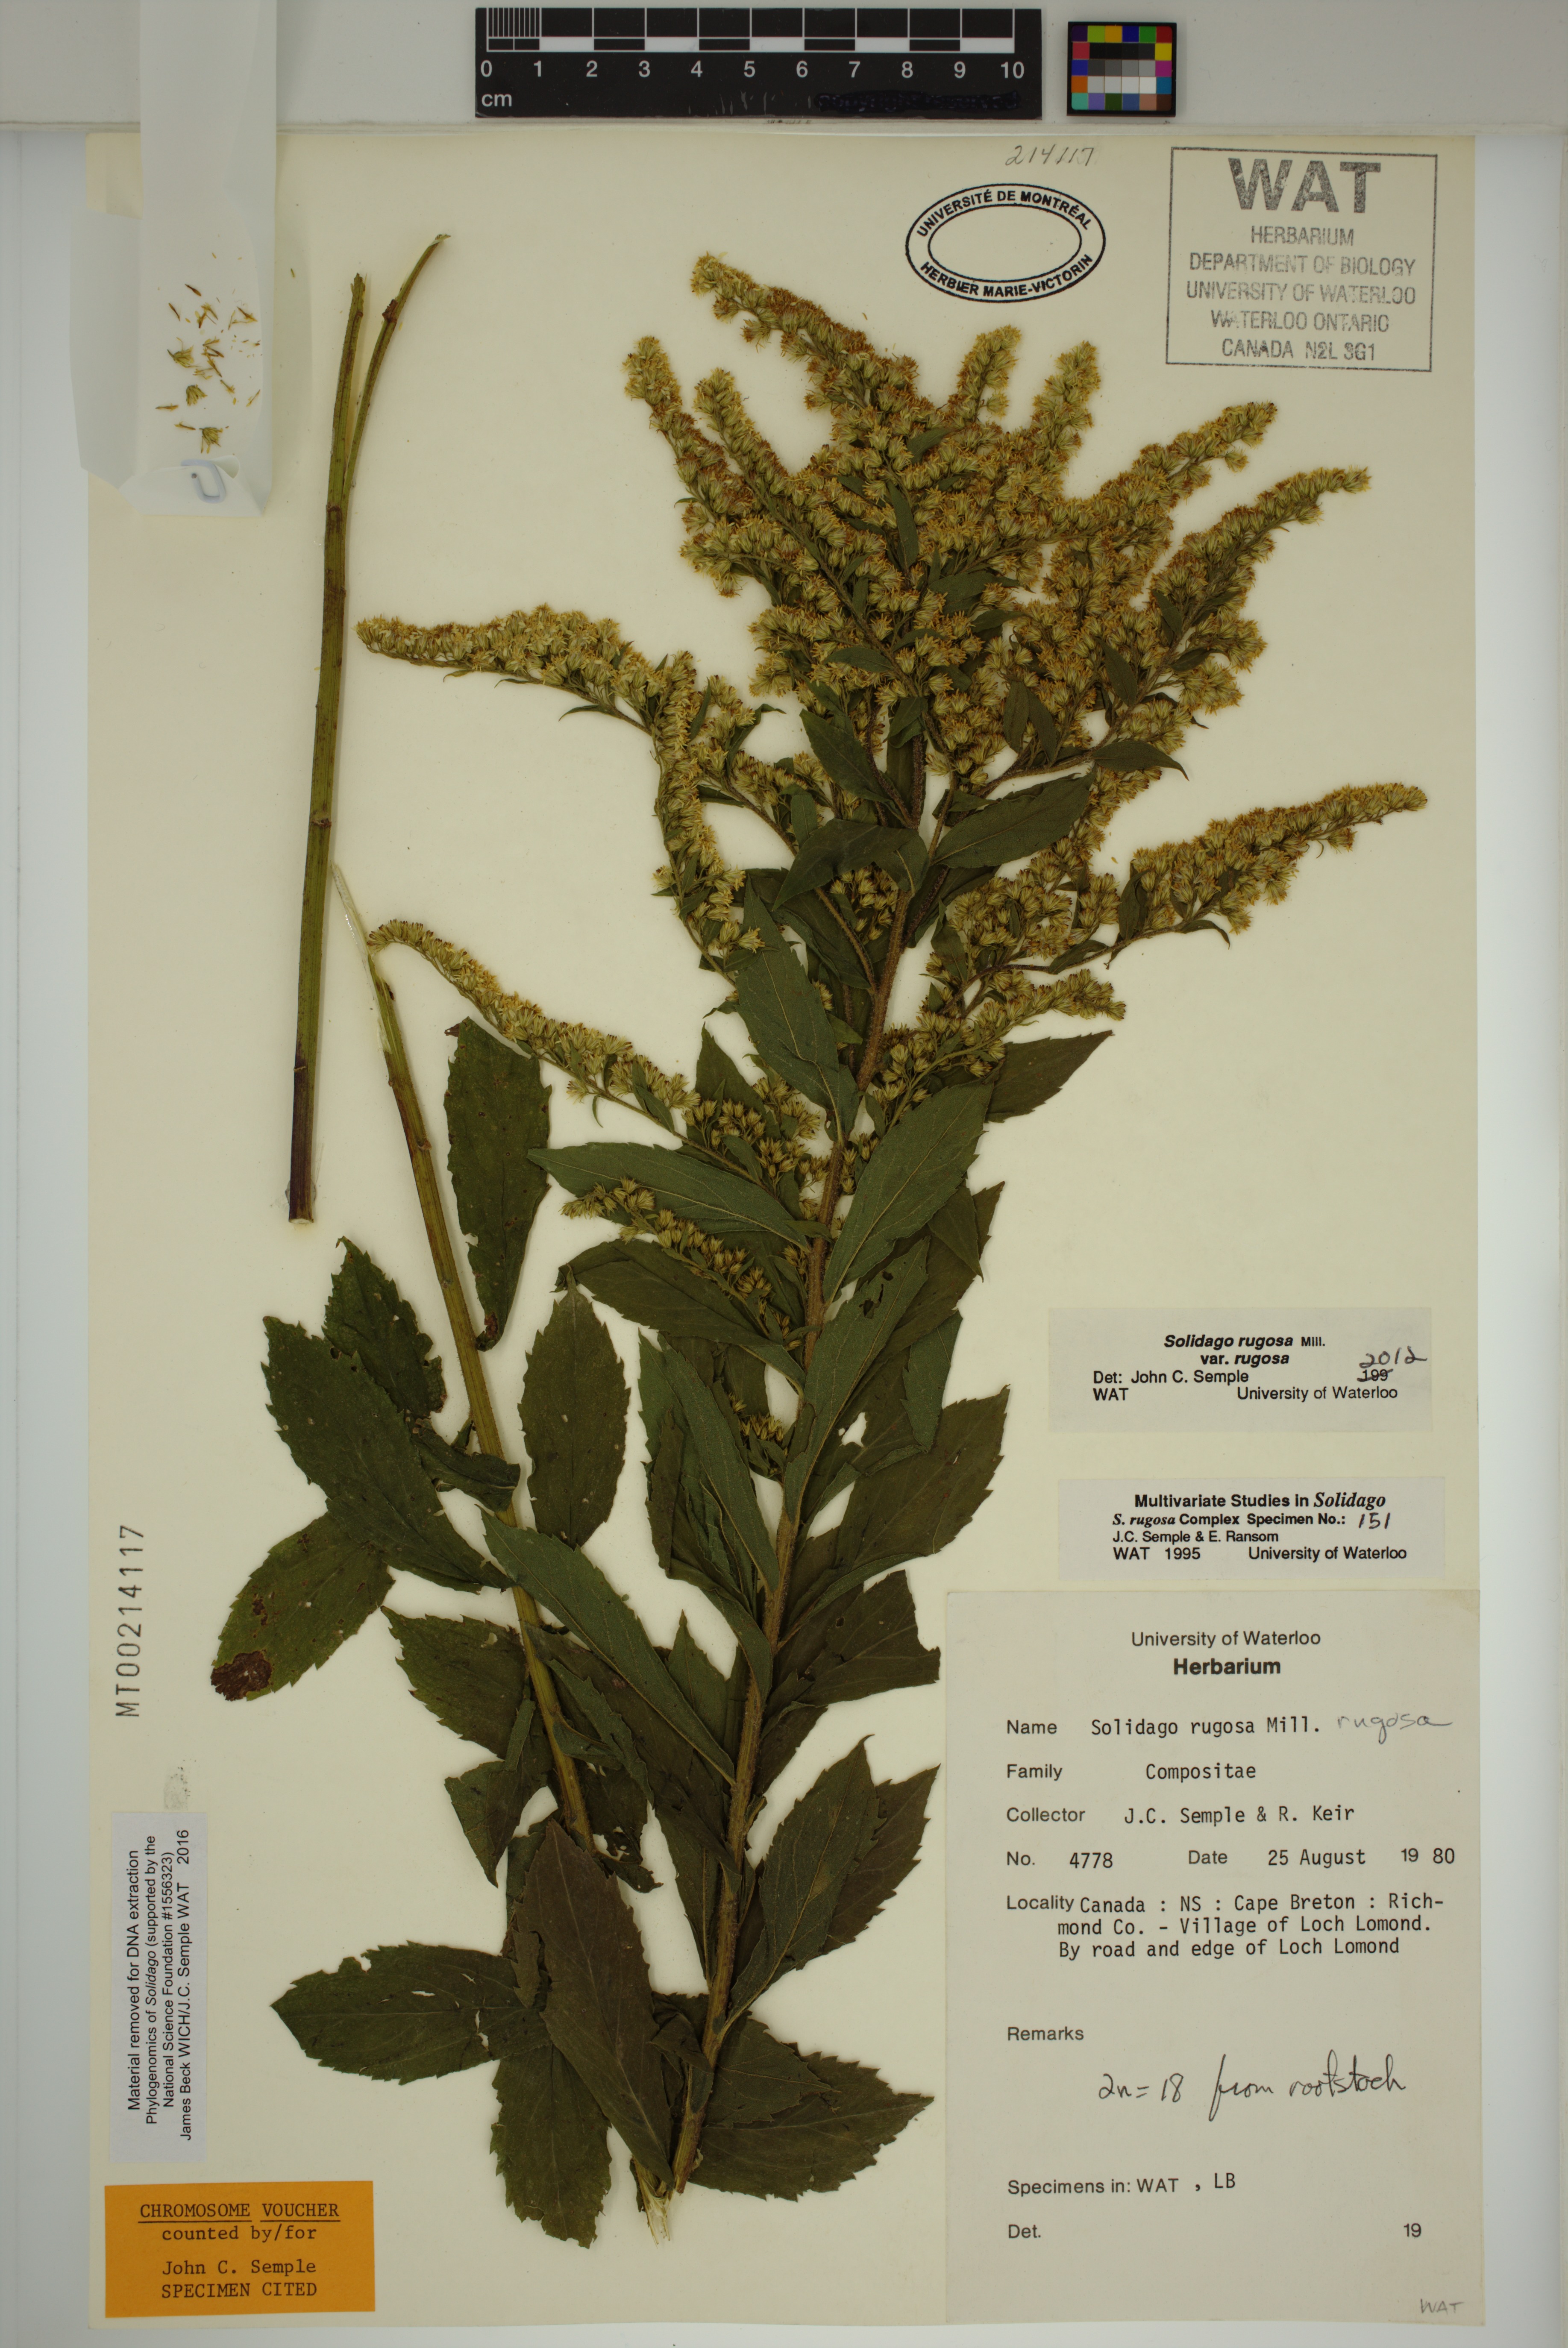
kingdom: Plantae
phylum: Tracheophyta
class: Magnoliopsida
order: Asterales
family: Asteraceae
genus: Solidago
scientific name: Solidago rugosa
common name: Rough-stemmed goldenrod
